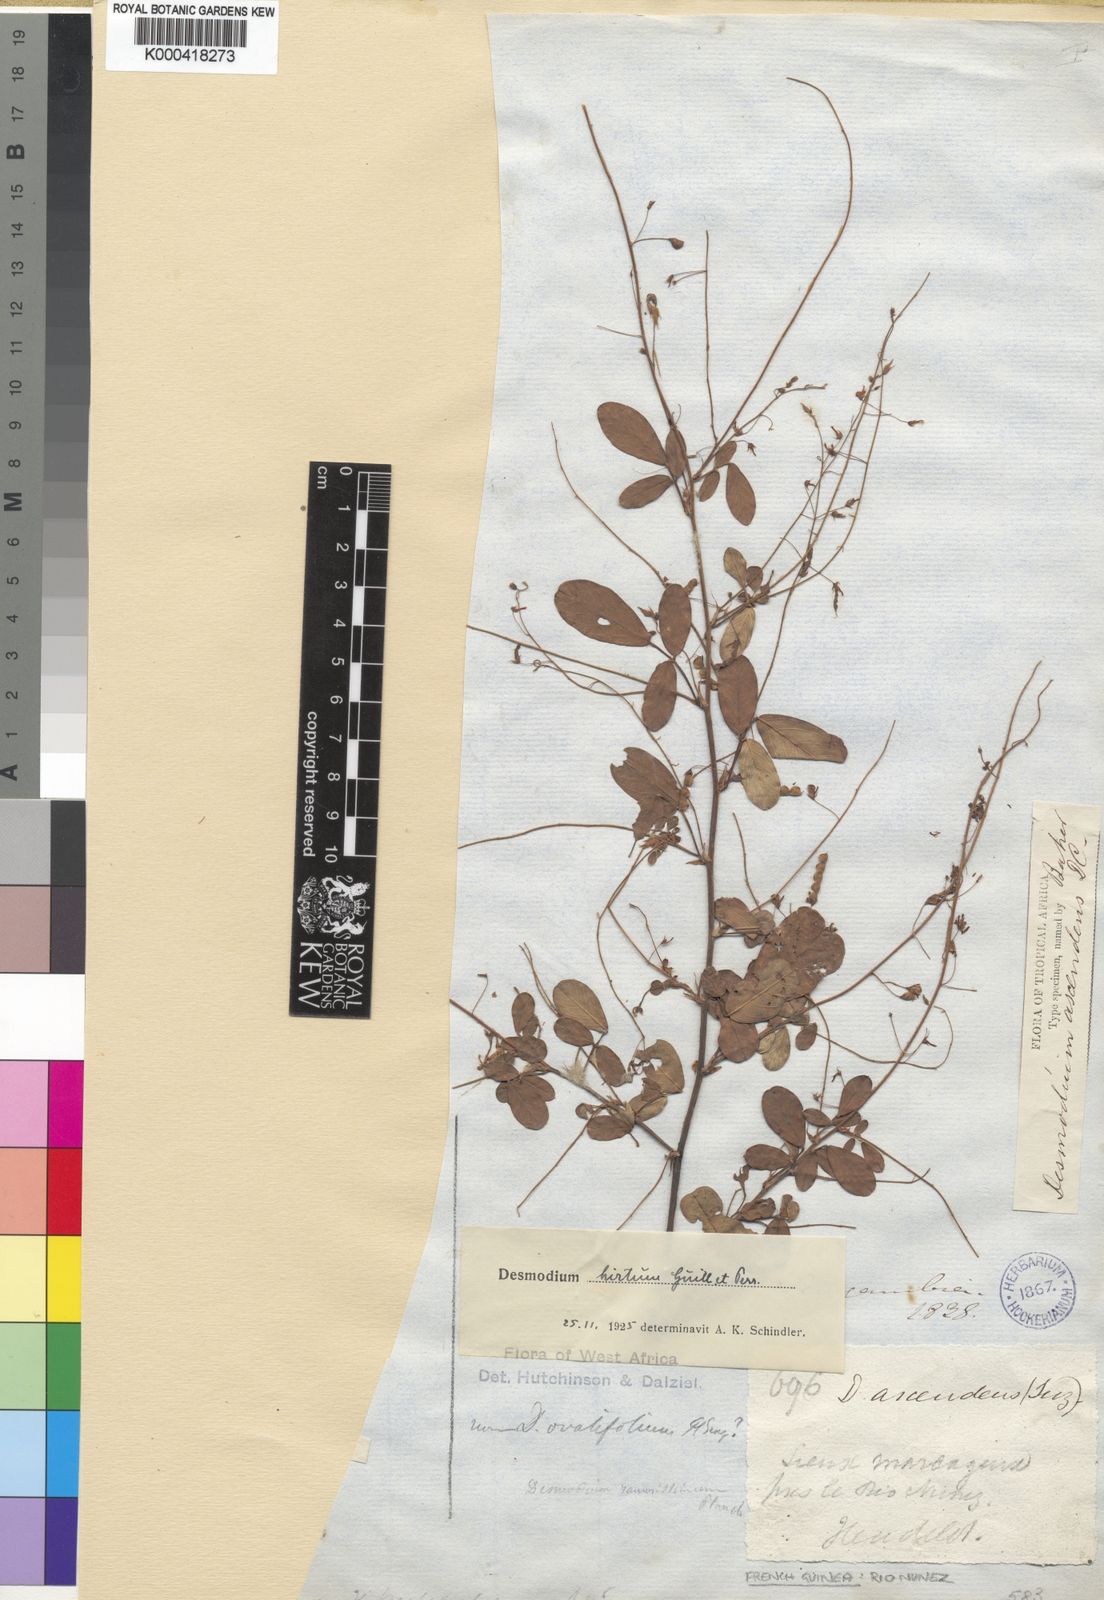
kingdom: Plantae
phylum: Tracheophyta
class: Magnoliopsida
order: Fabales
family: Fabaceae
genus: Grona
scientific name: Grona setigera
